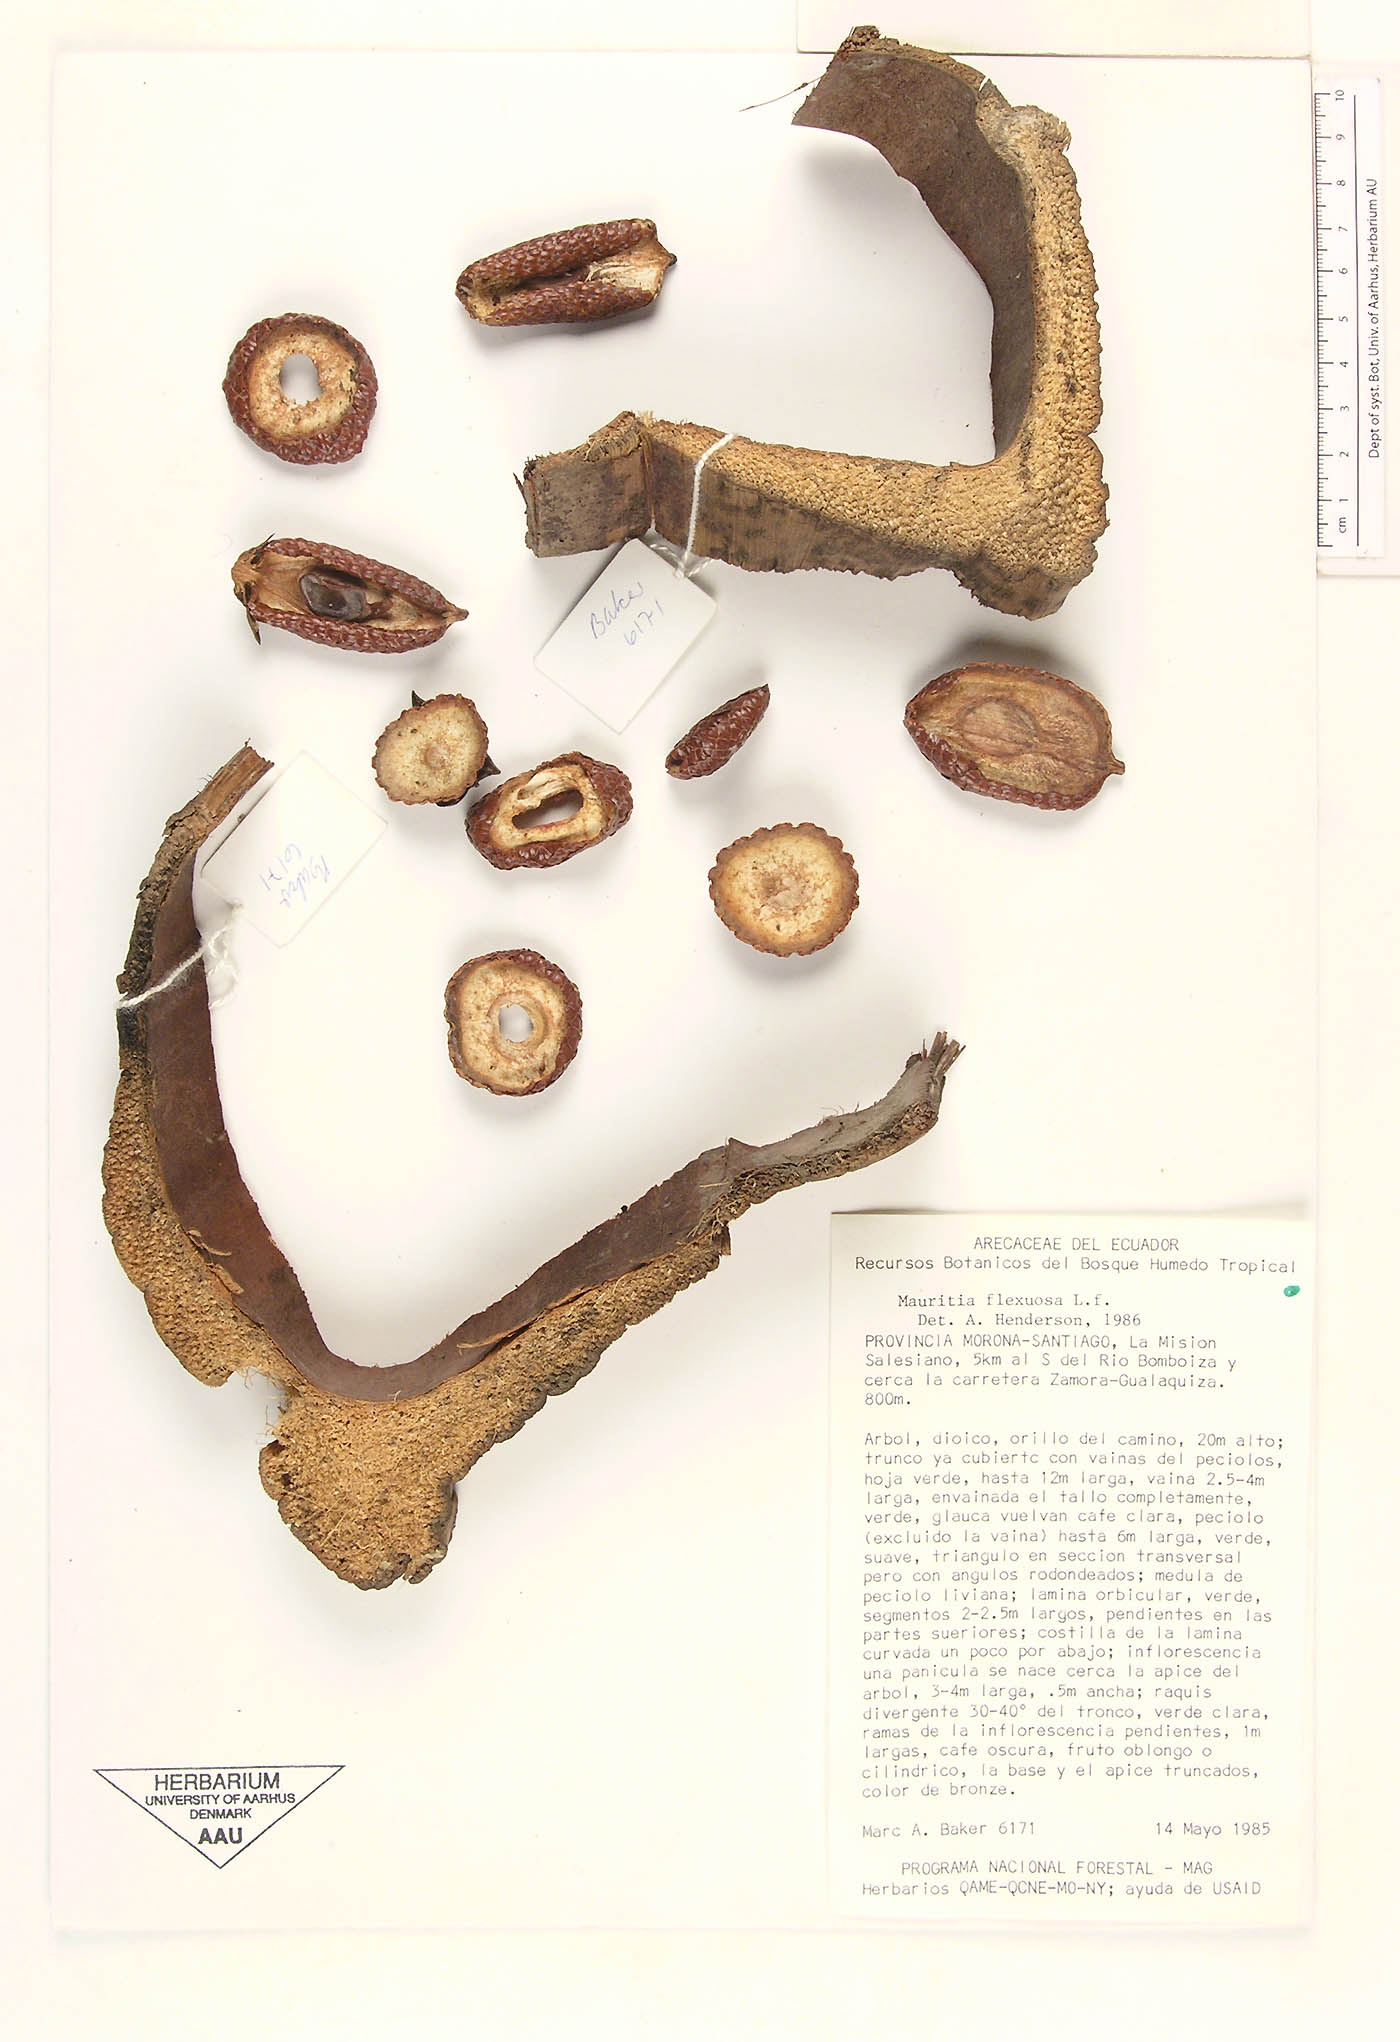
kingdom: Plantae
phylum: Tracheophyta
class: Liliopsida
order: Arecales
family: Arecaceae
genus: Mauritia
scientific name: Mauritia flexuosa
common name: Tree-of-life
